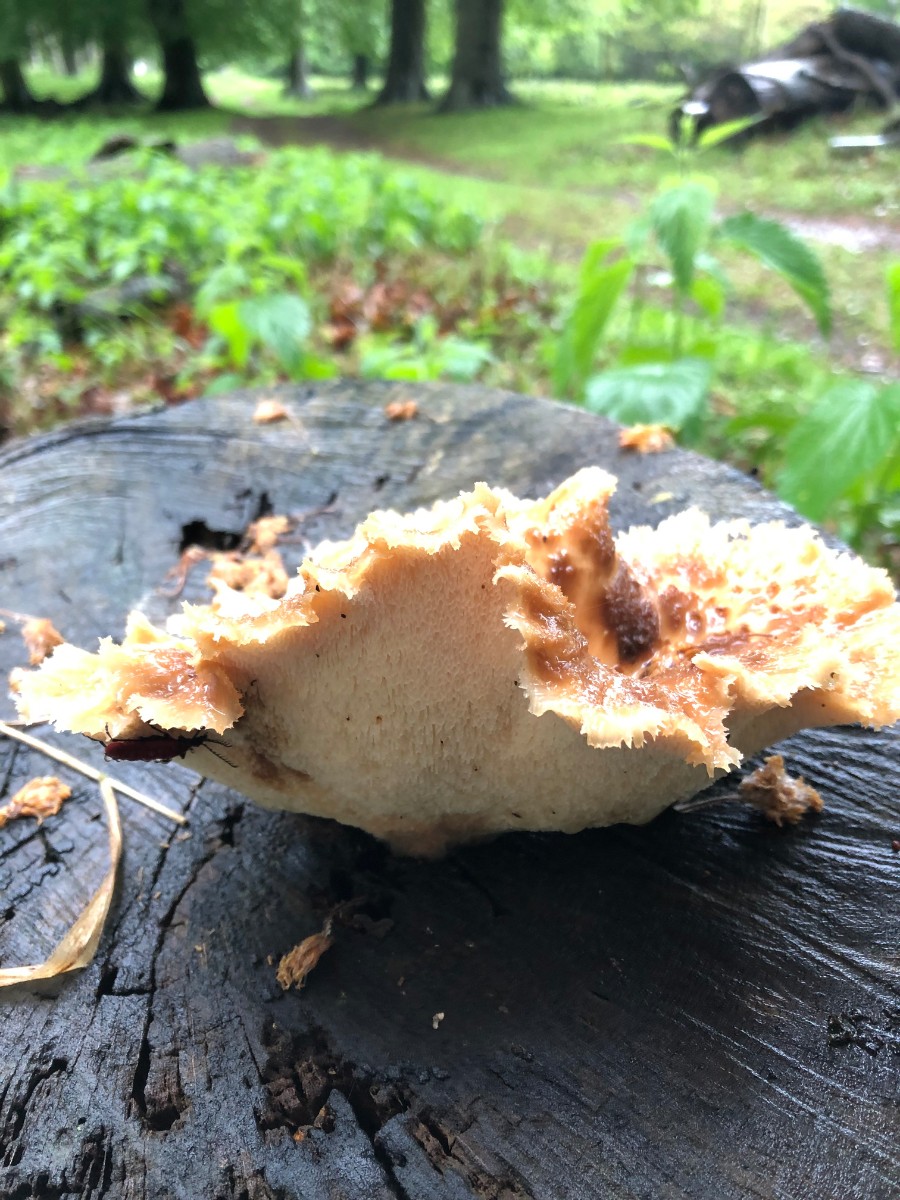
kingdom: Fungi
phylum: Basidiomycota
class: Agaricomycetes
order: Polyporales
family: Polyporaceae
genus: Polyporus
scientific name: Polyporus tuberaster
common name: knoldet stilkporesvamp
